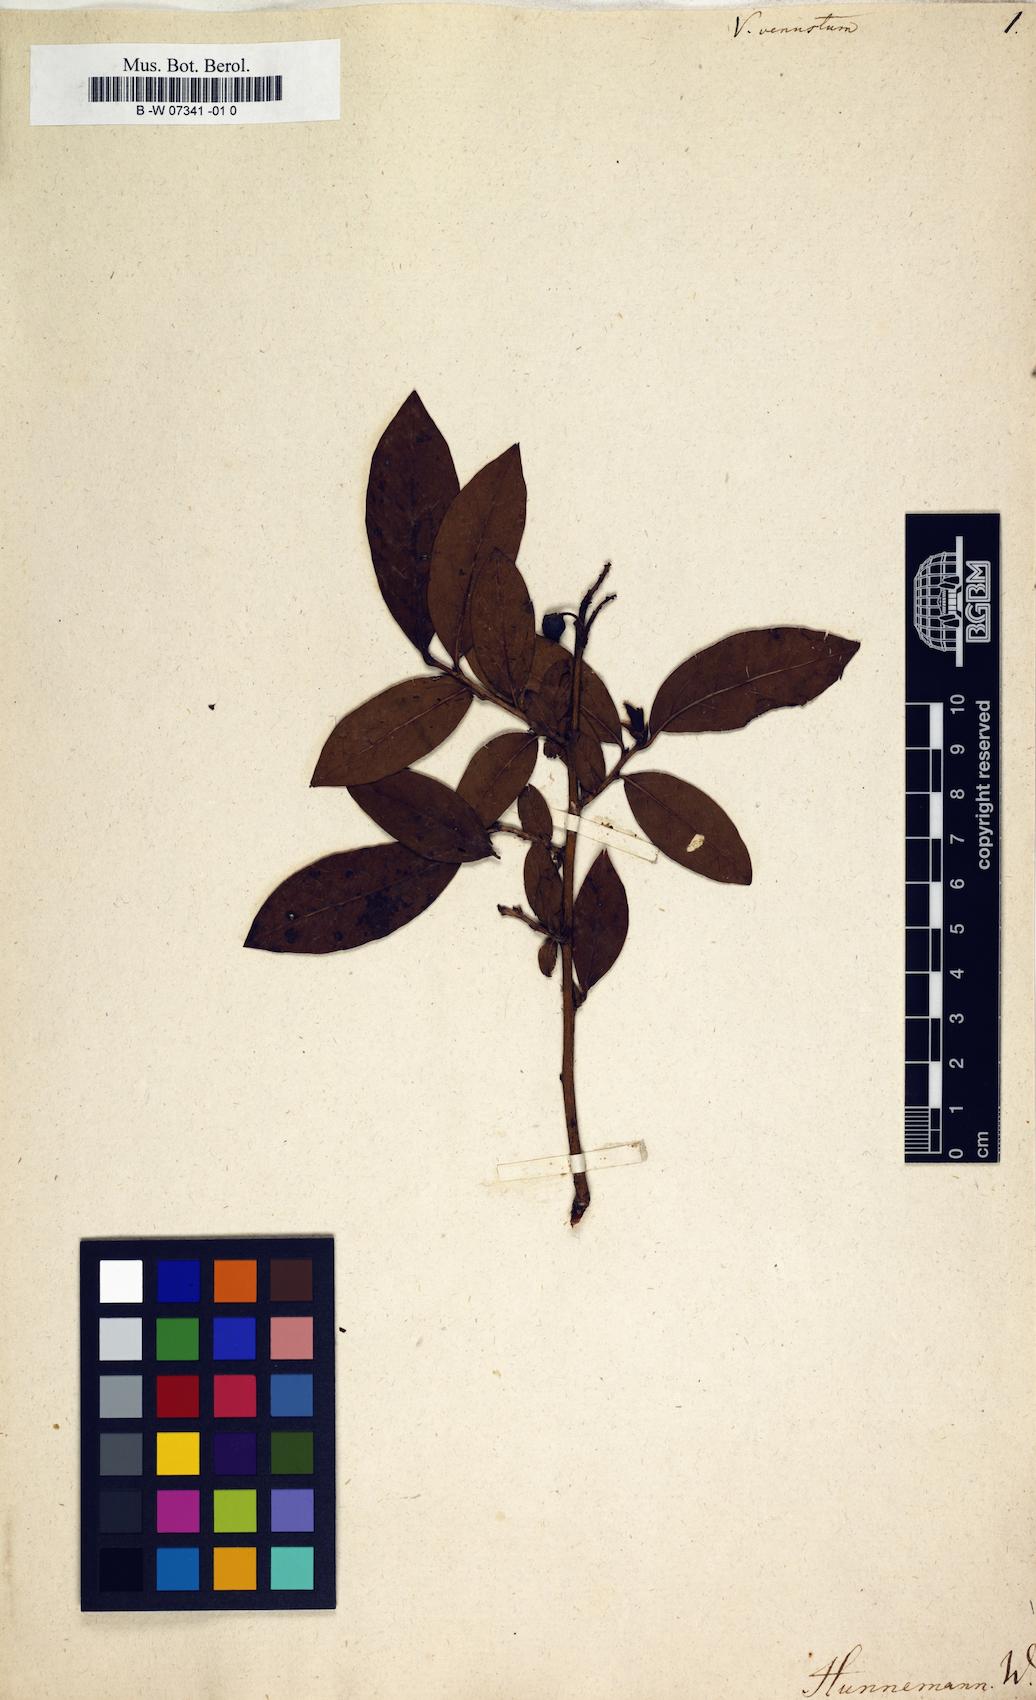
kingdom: Plantae
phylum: Tracheophyta
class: Magnoliopsida
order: Ericales
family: Ericaceae
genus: Gaylussacia
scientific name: Gaylussacia frondosa
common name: Dangleberry
